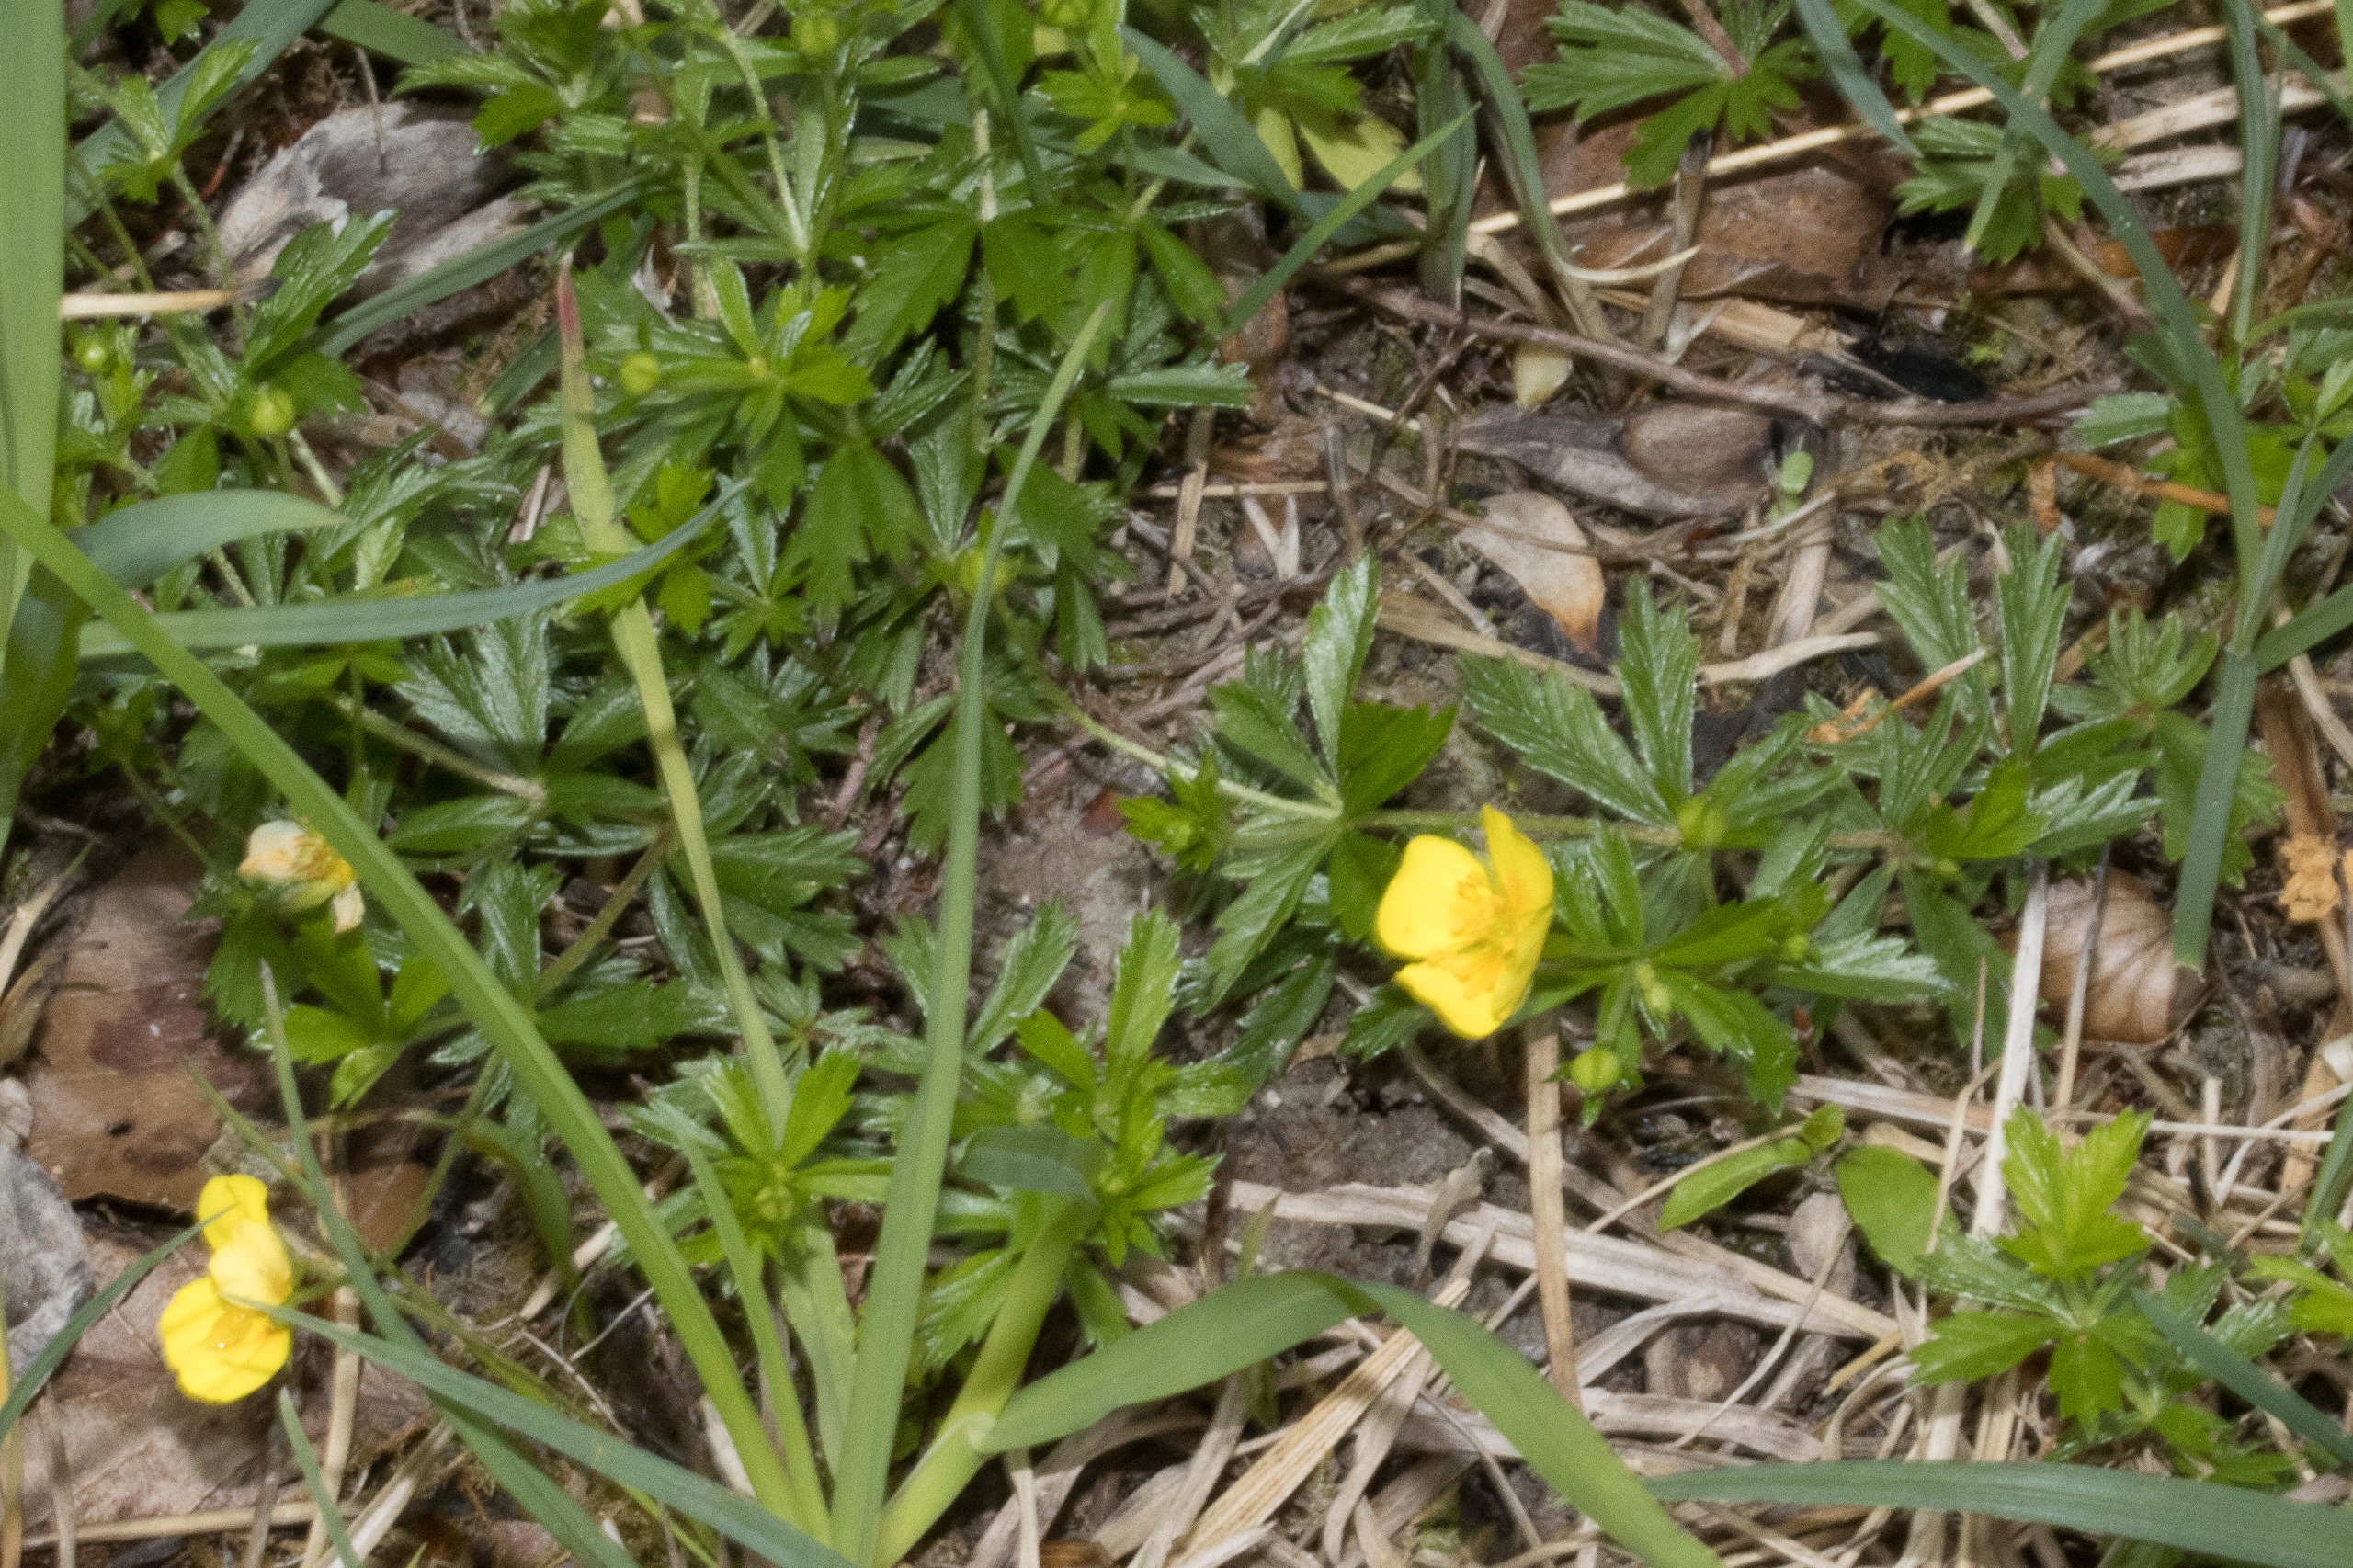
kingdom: Plantae
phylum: Tracheophyta
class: Magnoliopsida
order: Rosales
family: Rosaceae
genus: Potentilla
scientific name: Potentilla erecta
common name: Tormentil
